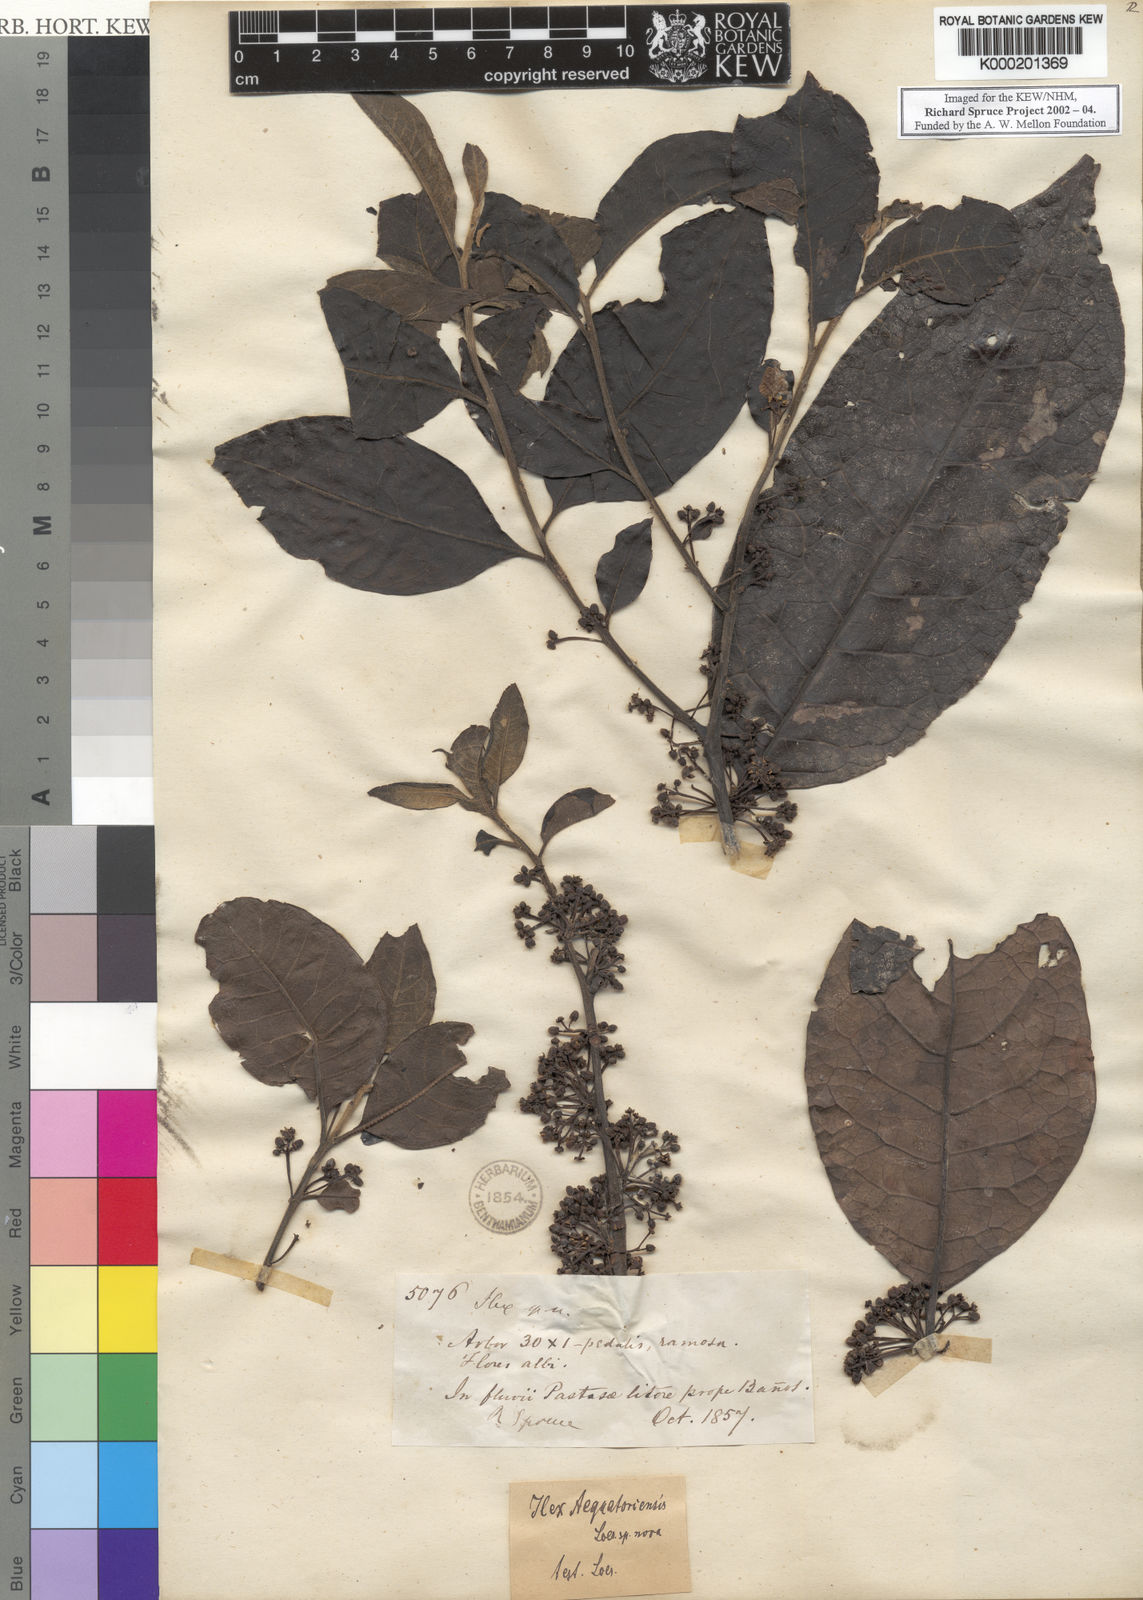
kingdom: Plantae
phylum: Tracheophyta
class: Magnoliopsida
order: Aquifoliales
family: Aquifoliaceae
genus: Ilex
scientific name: Ilex nervosa
